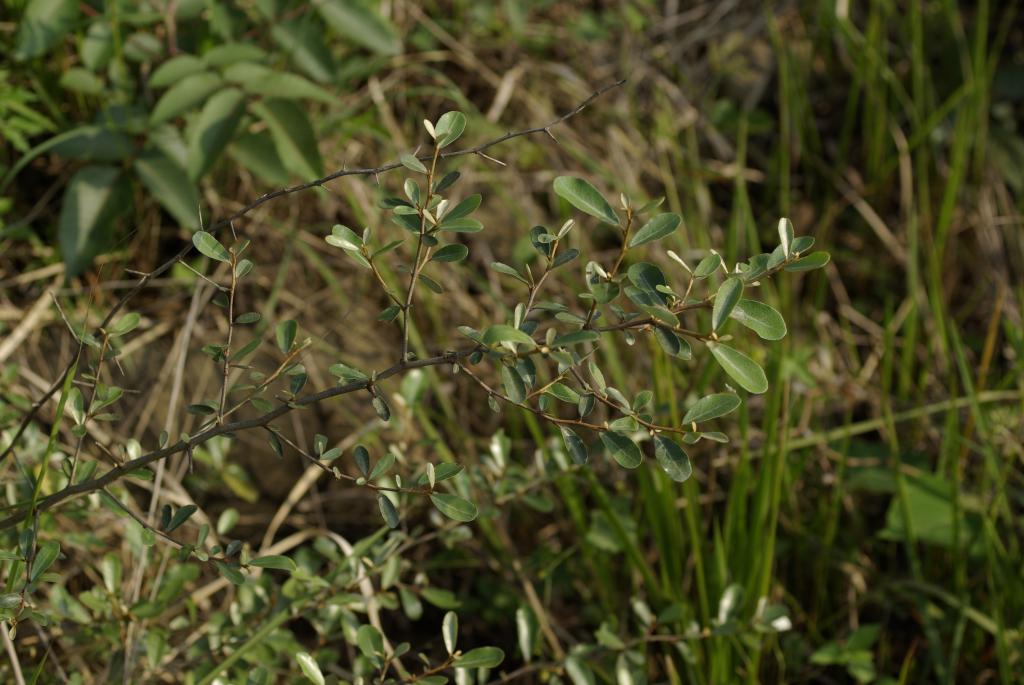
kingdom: Plantae
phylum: Tracheophyta
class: Magnoliopsida
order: Rosales
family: Elaeagnaceae
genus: Elaeagnus
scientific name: Elaeagnus oldhamii
